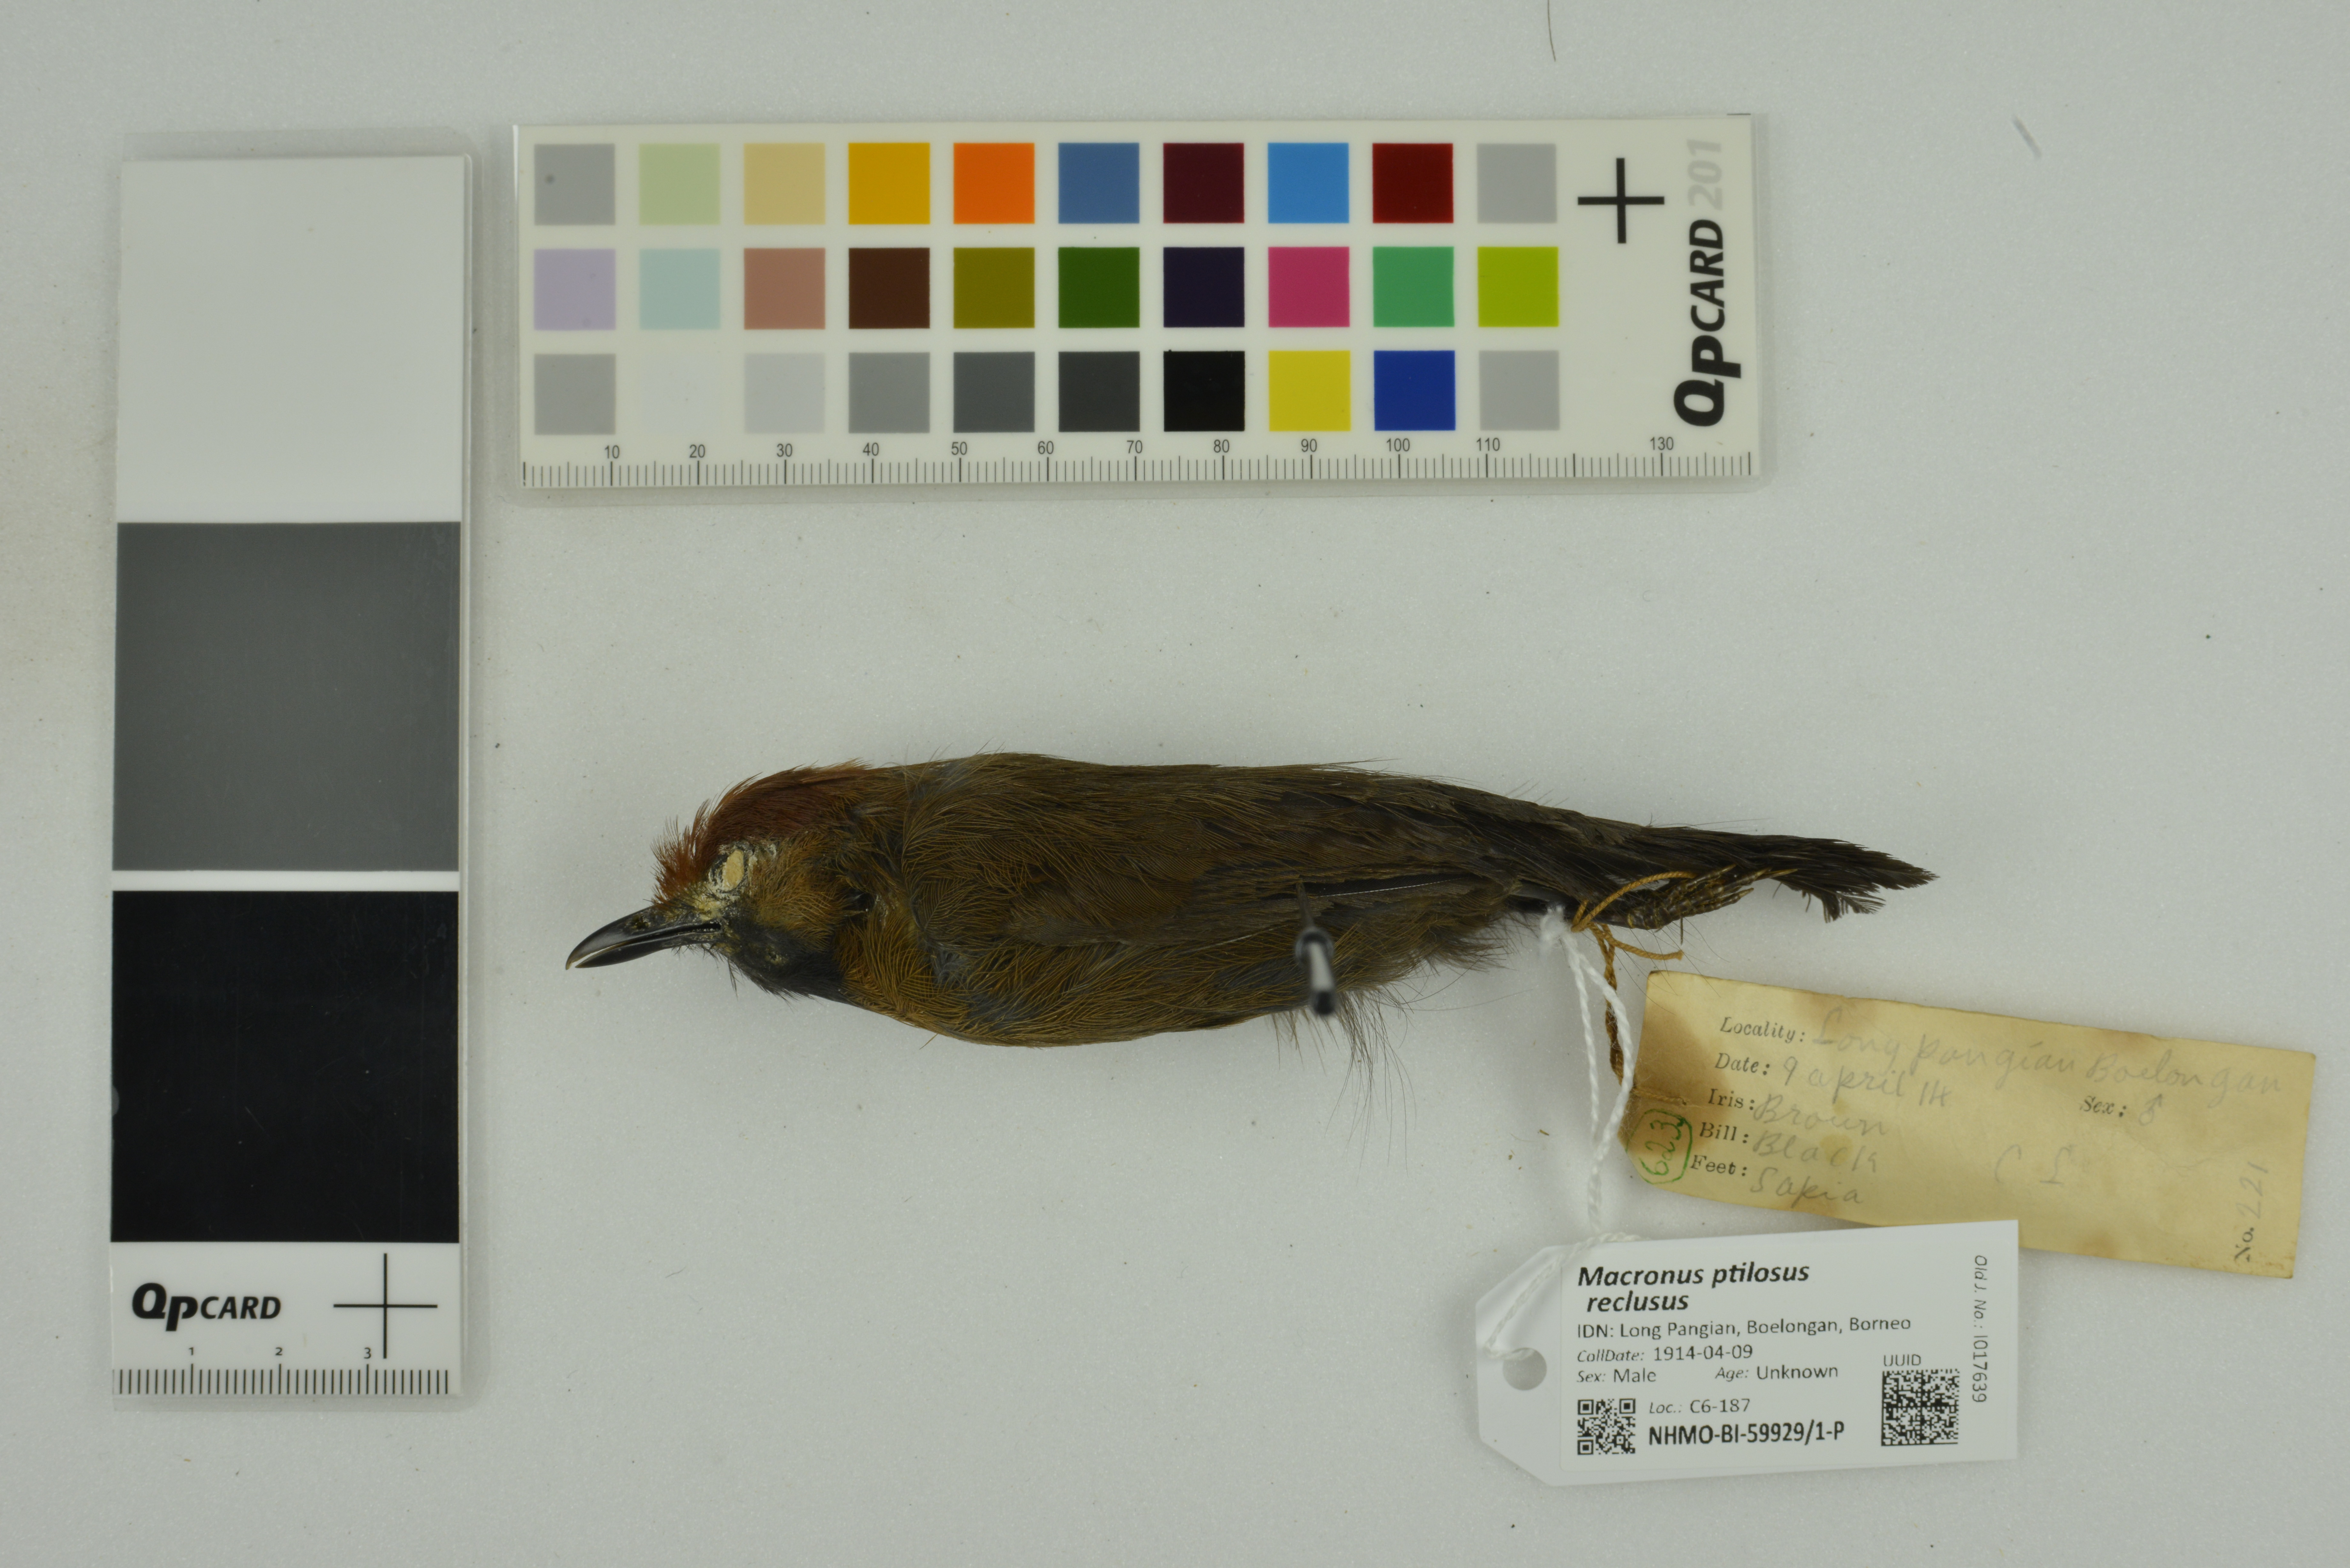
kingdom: Animalia
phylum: Chordata
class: Aves
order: Passeriformes
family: Timaliidae
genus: Macronus
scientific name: Macronus ptilosus
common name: Fluffy-backed tit-babbler
